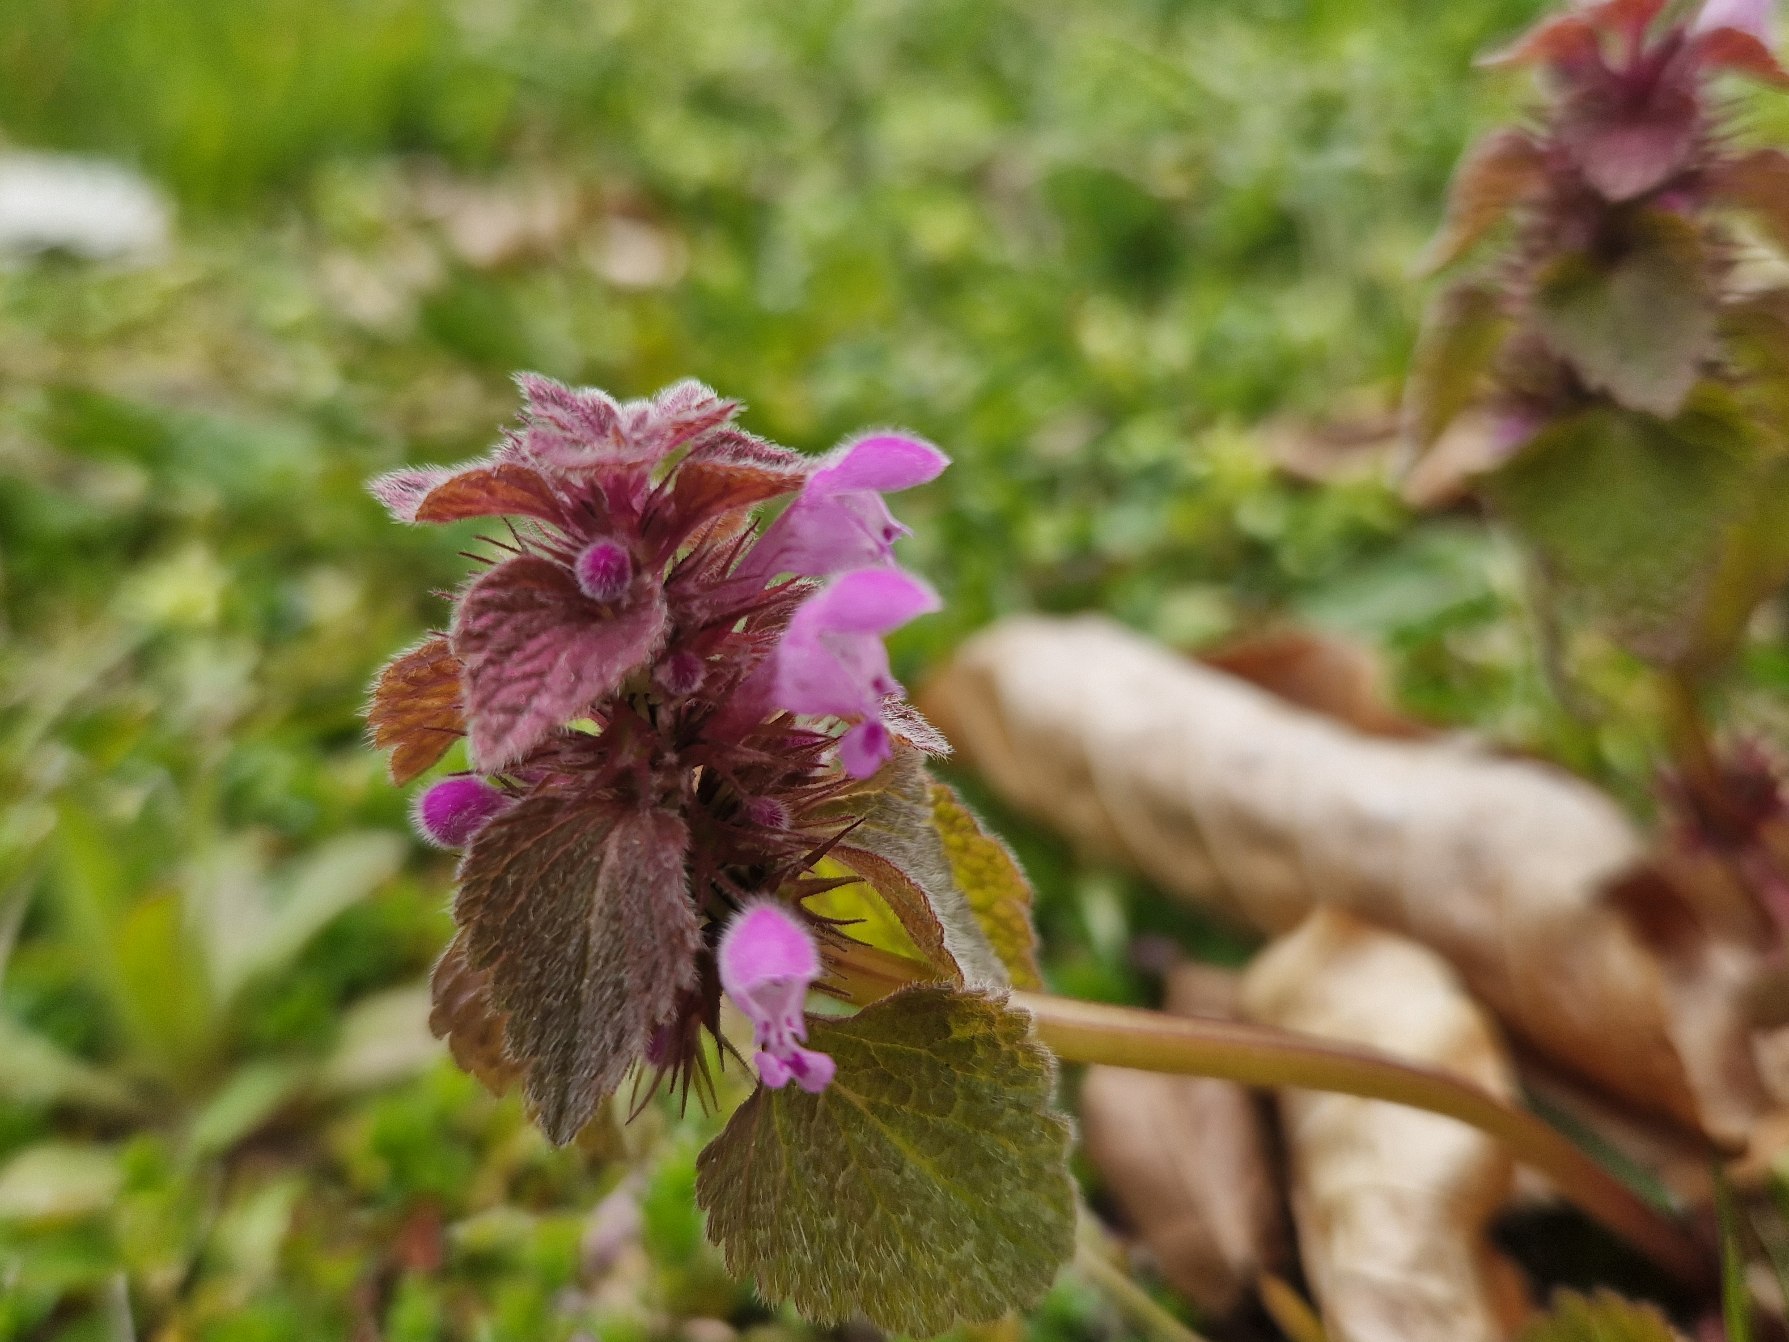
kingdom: Plantae
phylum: Tracheophyta
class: Magnoliopsida
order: Lamiales
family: Lamiaceae
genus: Lamium
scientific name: Lamium purpureum
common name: Rød tvetand
